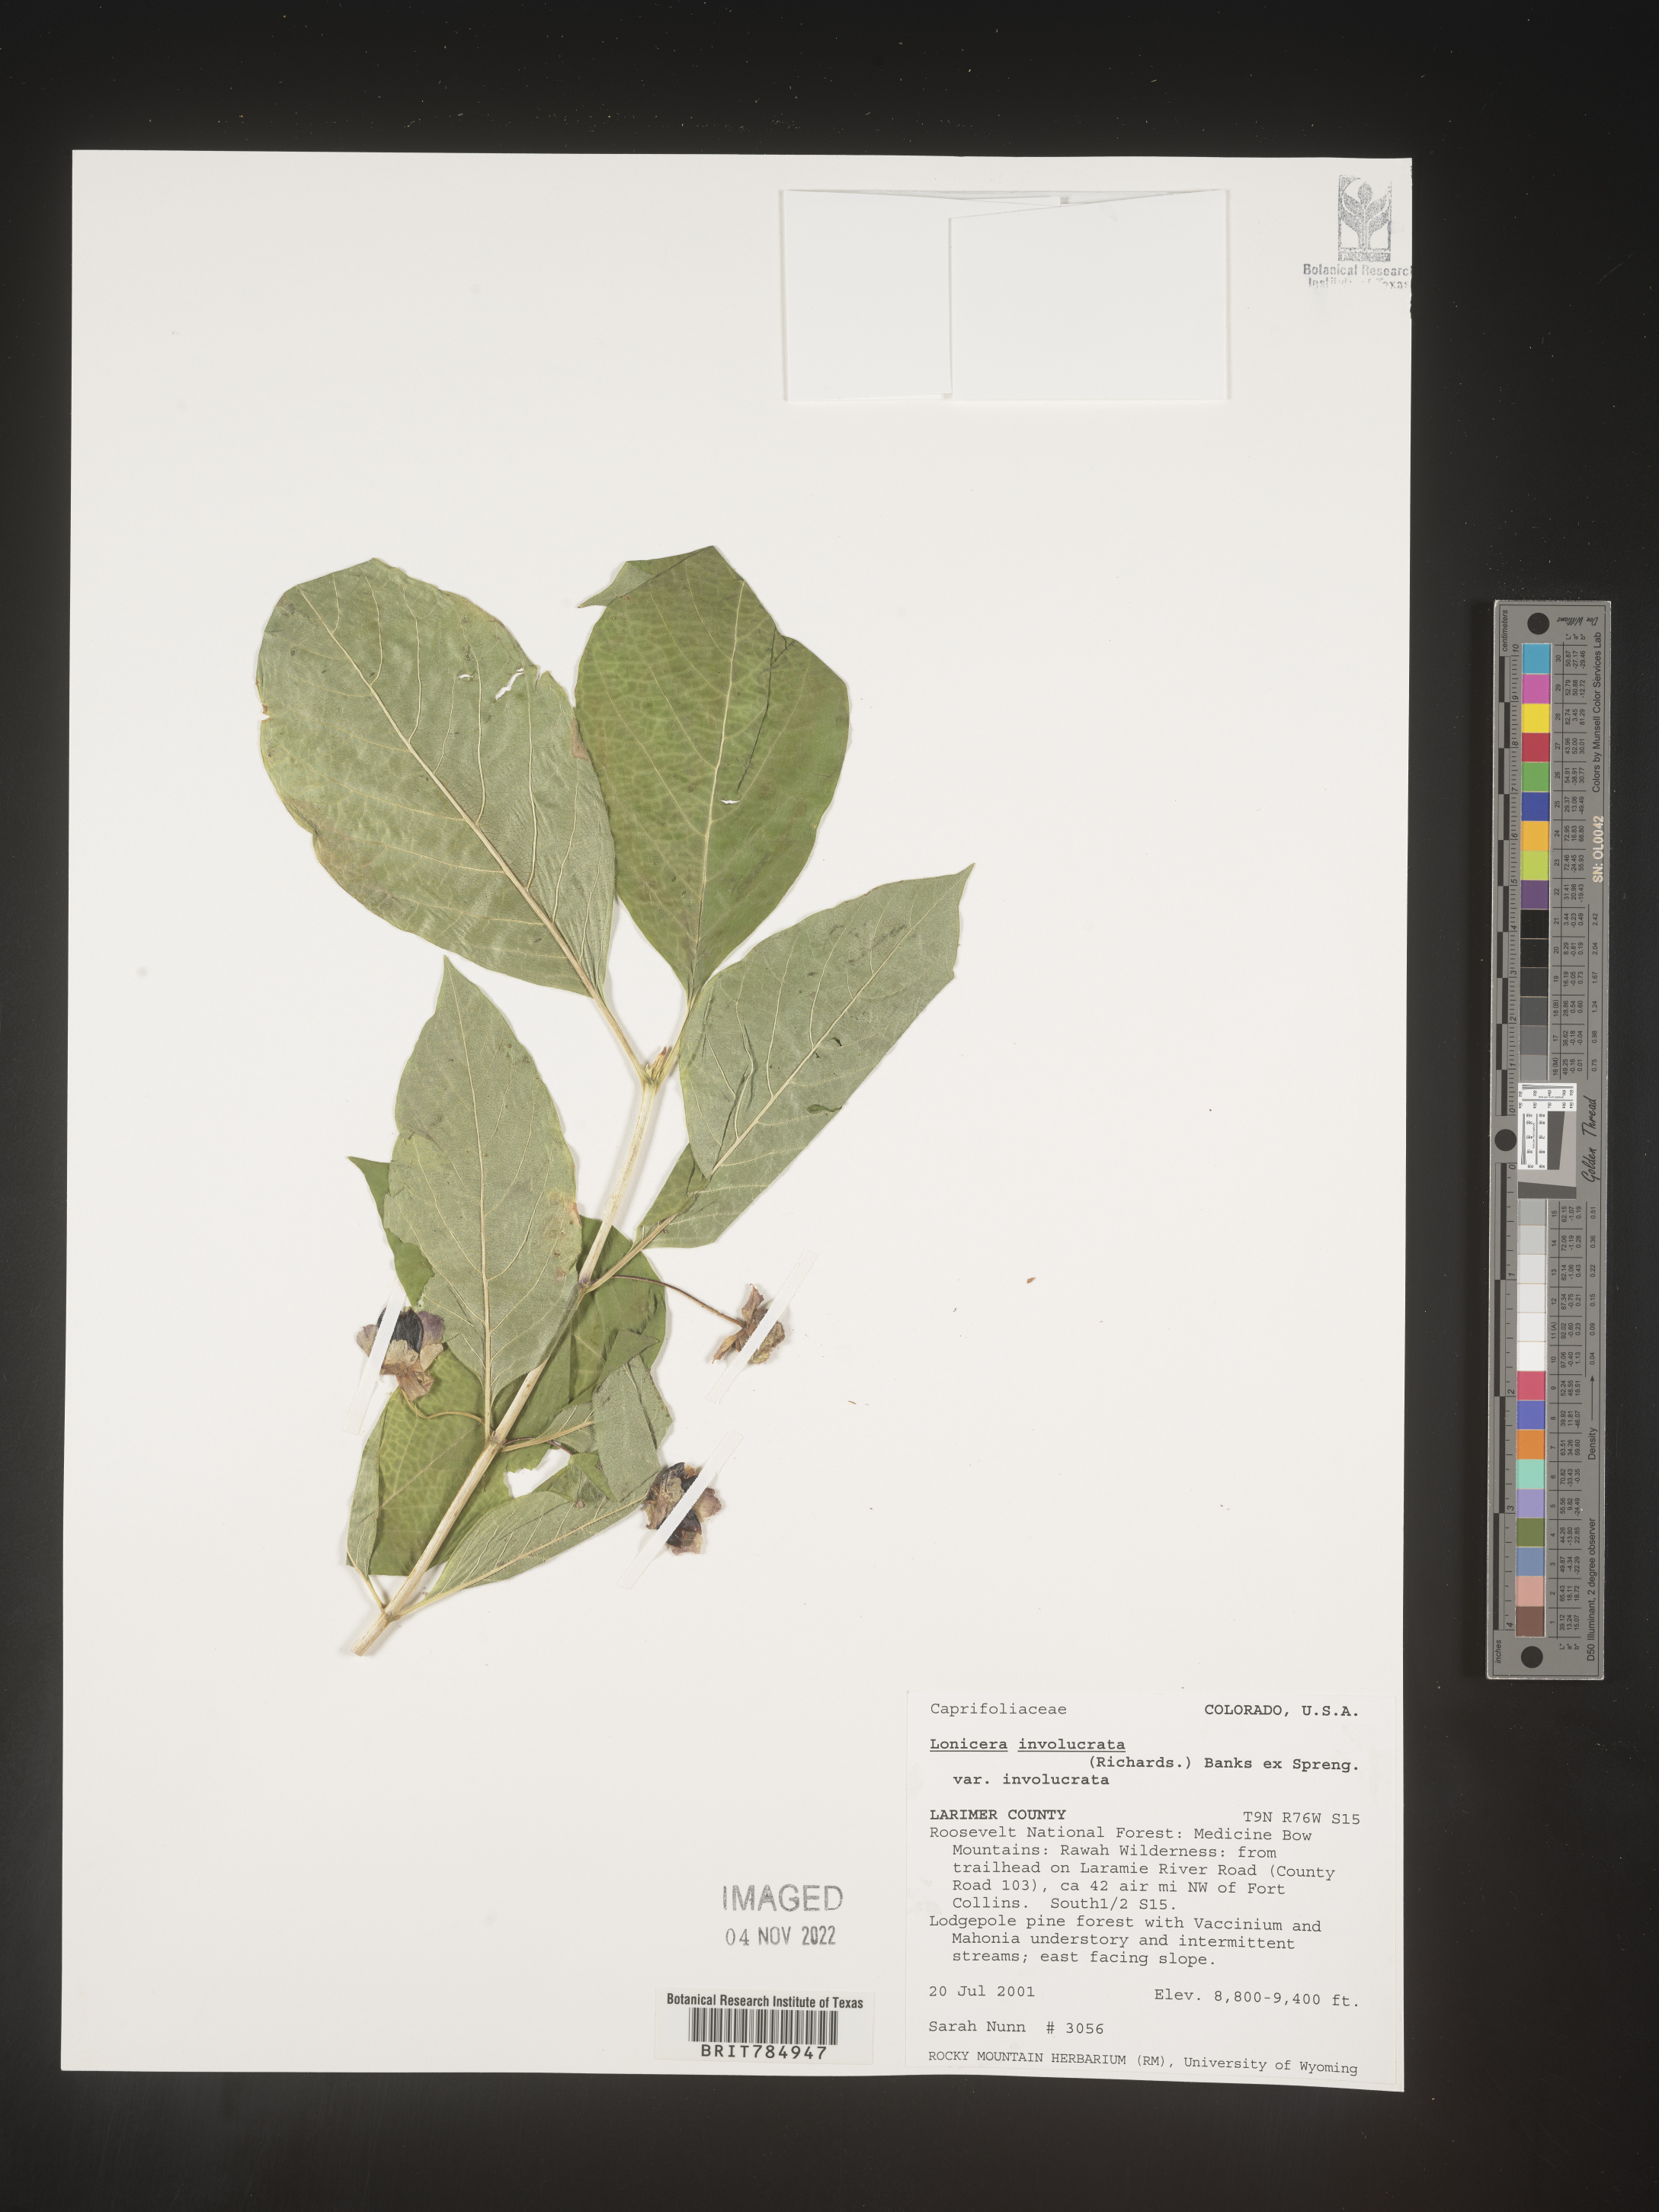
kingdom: Plantae
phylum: Tracheophyta
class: Magnoliopsida
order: Dipsacales
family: Caprifoliaceae
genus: Lonicera
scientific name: Lonicera involucrata
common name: Californian honeysuckle
